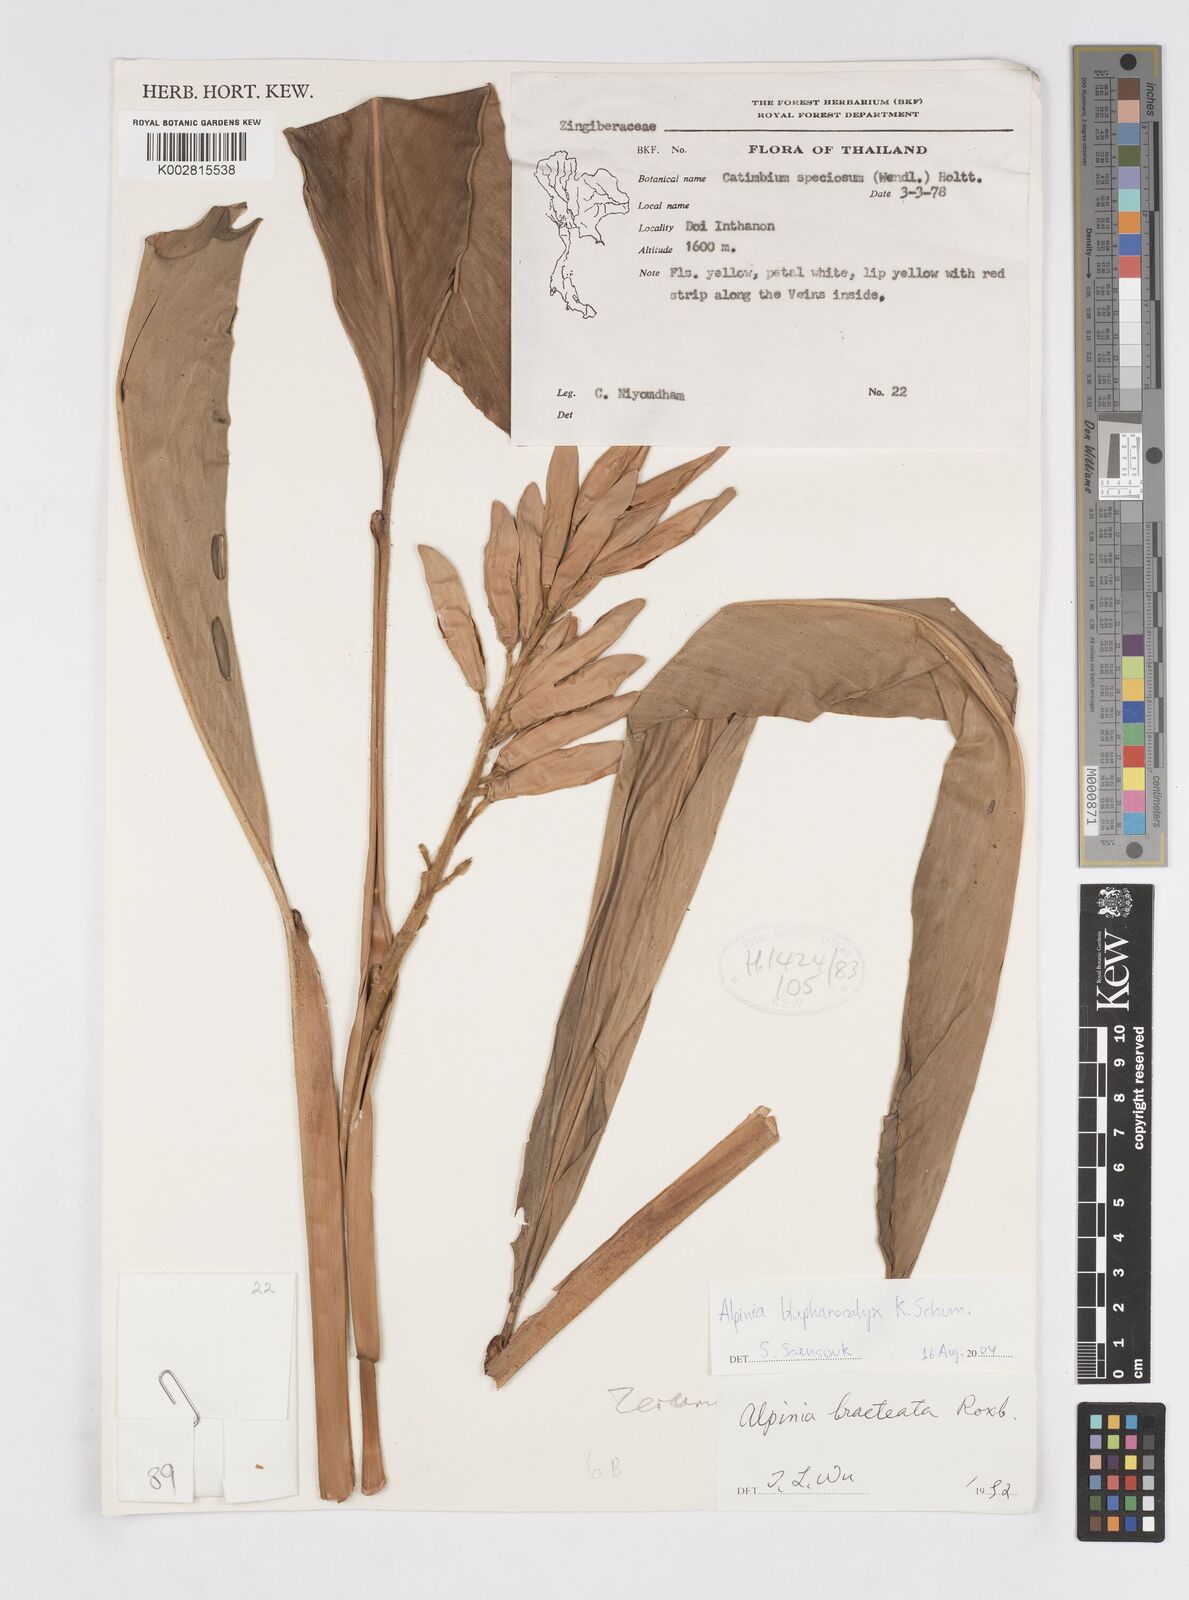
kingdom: Plantae
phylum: Tracheophyta
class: Liliopsida
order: Zingiberales
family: Zingiberaceae
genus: Alpinia
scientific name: Alpinia roxburghii
